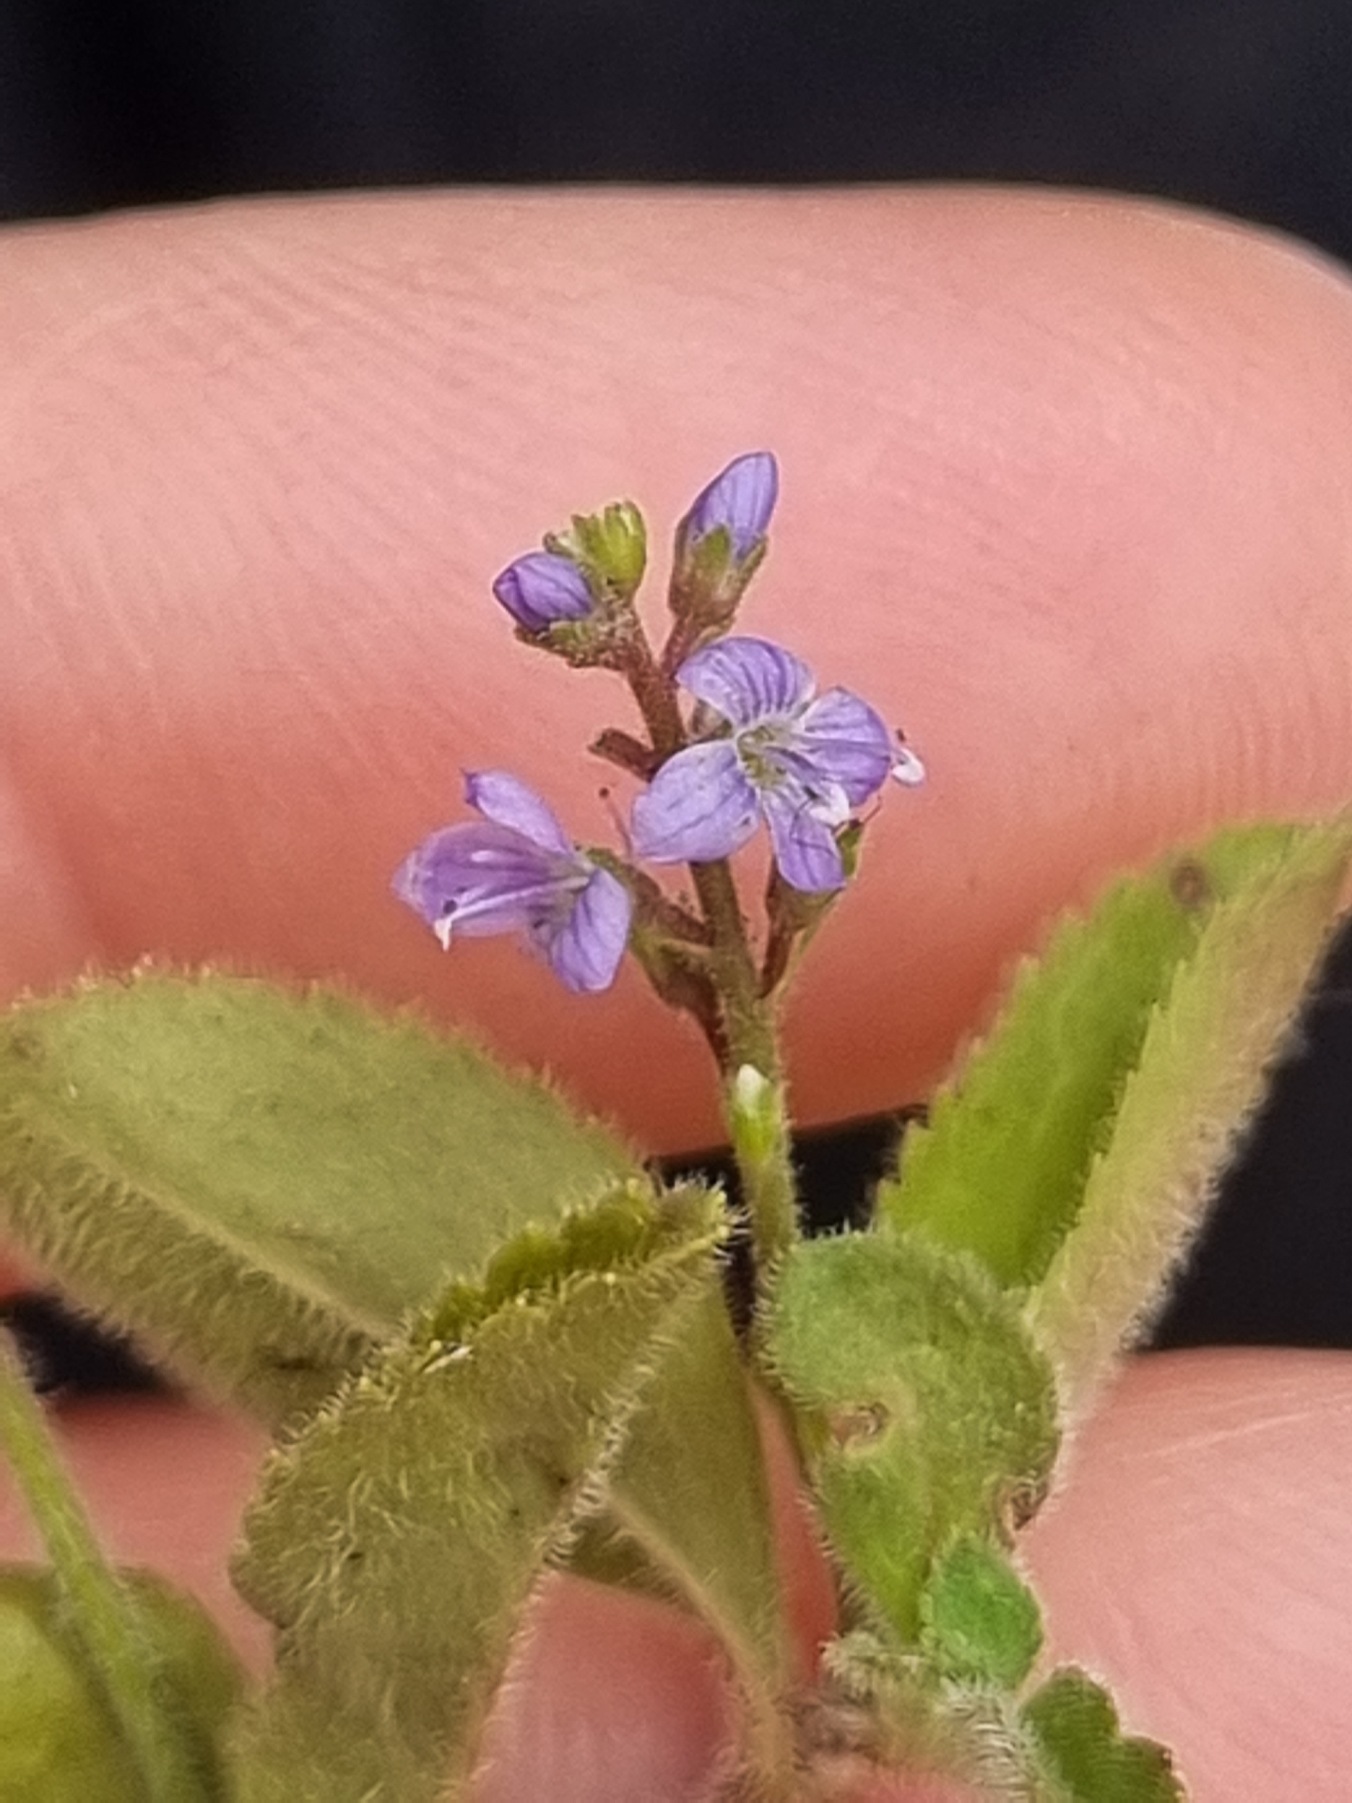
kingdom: Plantae
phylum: Tracheophyta
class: Magnoliopsida
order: Lamiales
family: Plantaginaceae
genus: Veronica
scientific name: Veronica officinalis
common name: Læge-ærenpris
